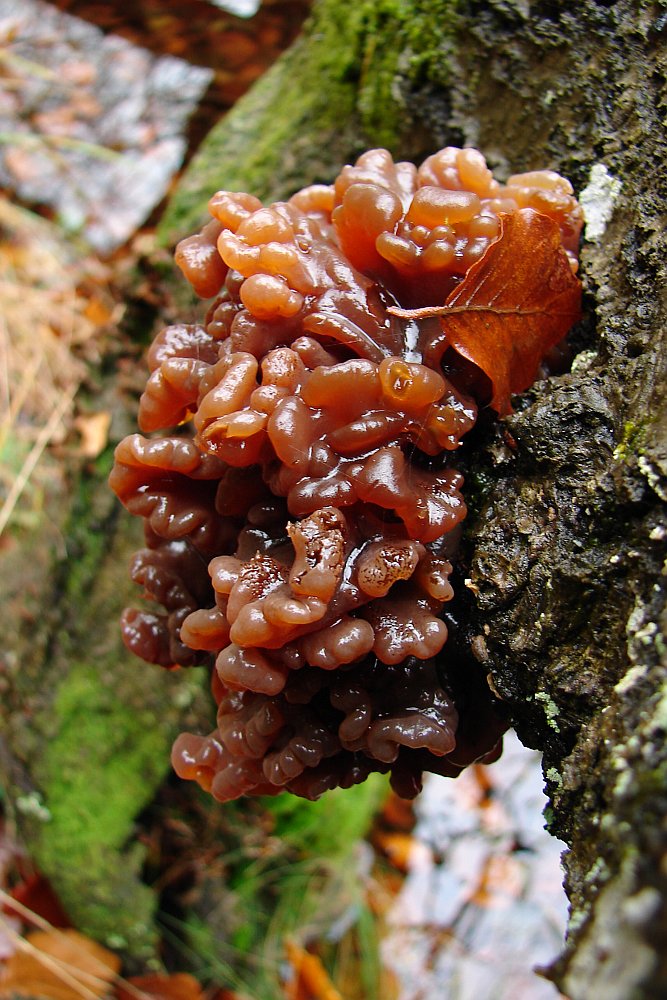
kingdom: Fungi
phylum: Basidiomycota
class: Tremellomycetes
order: Tremellales
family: Tremellaceae
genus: Phaeotremella
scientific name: Phaeotremella frondosa
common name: kæmpe-bævresvamp
